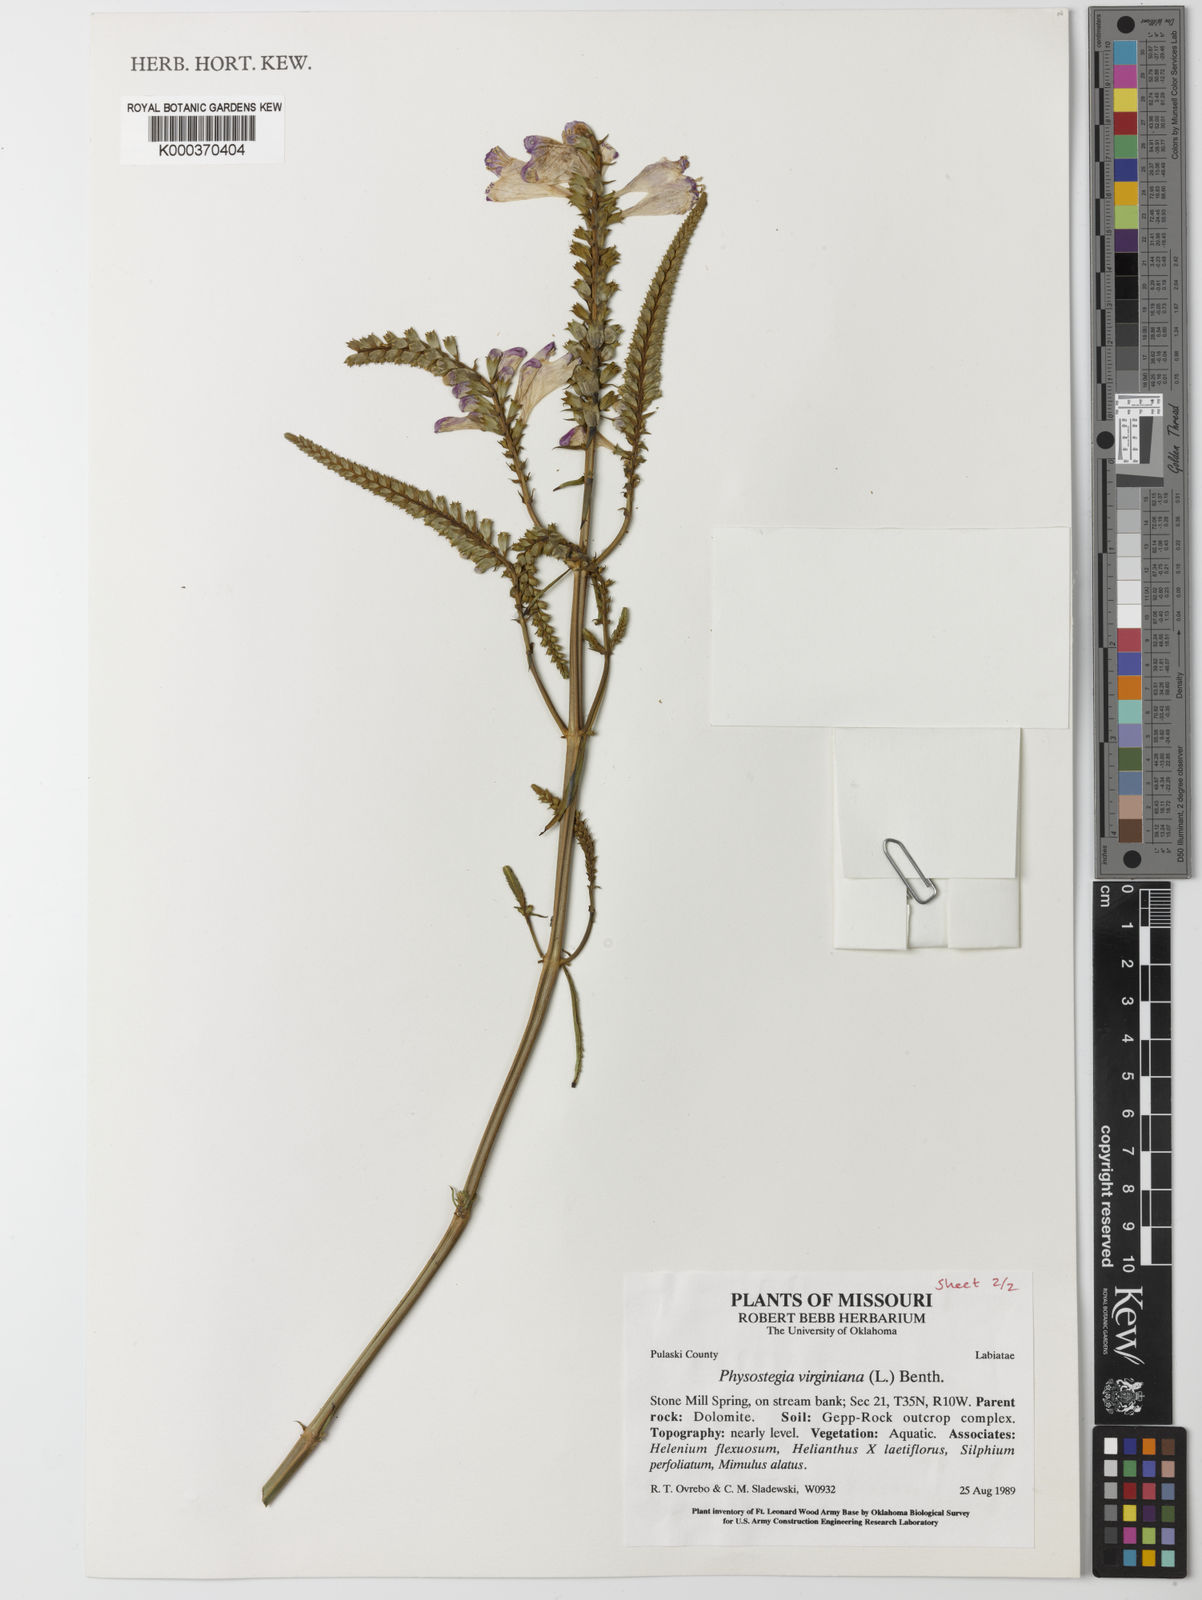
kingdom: Plantae
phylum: Tracheophyta
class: Magnoliopsida
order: Lamiales
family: Lamiaceae
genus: Physostegia
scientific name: Physostegia virginiana
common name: Obedient-plant
